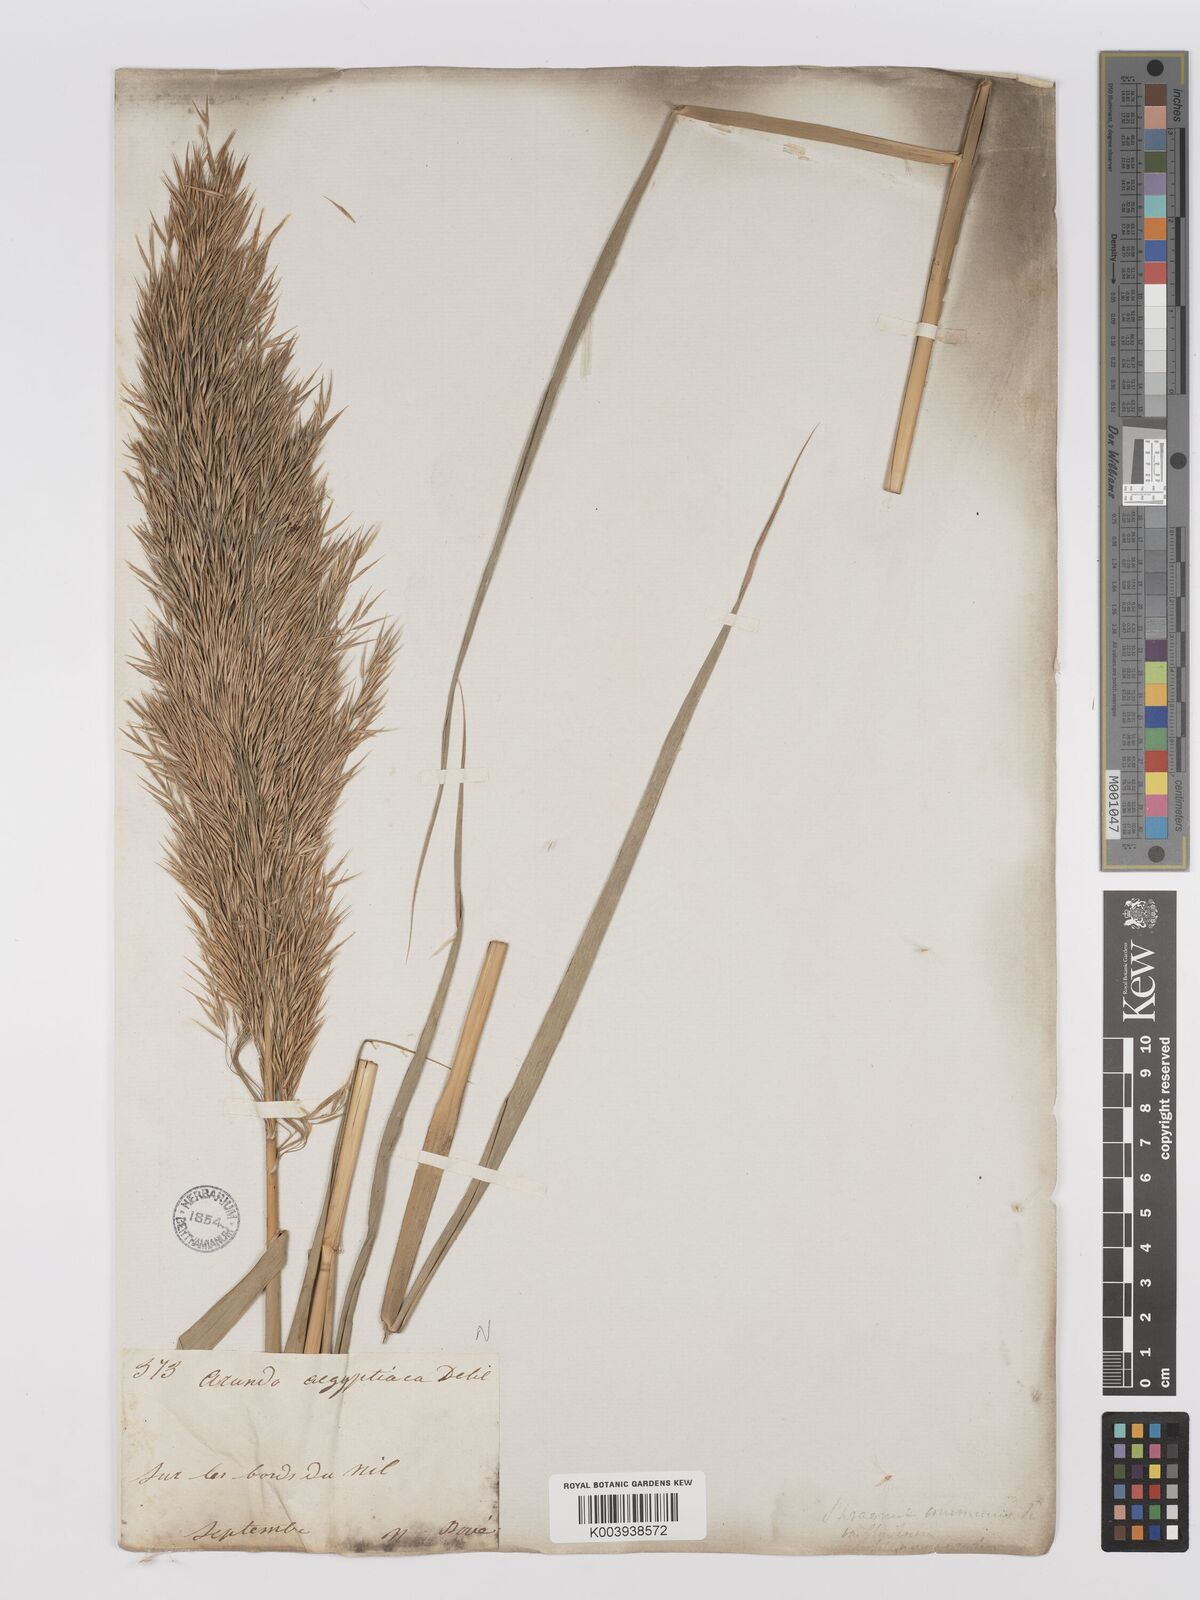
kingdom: Plantae
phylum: Tracheophyta
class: Liliopsida
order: Poales
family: Poaceae
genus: Phragmites
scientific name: Phragmites australis
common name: Common reed
